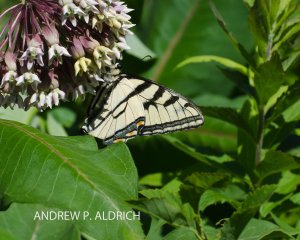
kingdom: Animalia
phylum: Arthropoda
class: Insecta
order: Lepidoptera
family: Papilionidae
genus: Pterourus
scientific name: Pterourus canadensis
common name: Canadian Tiger Swallowtail
